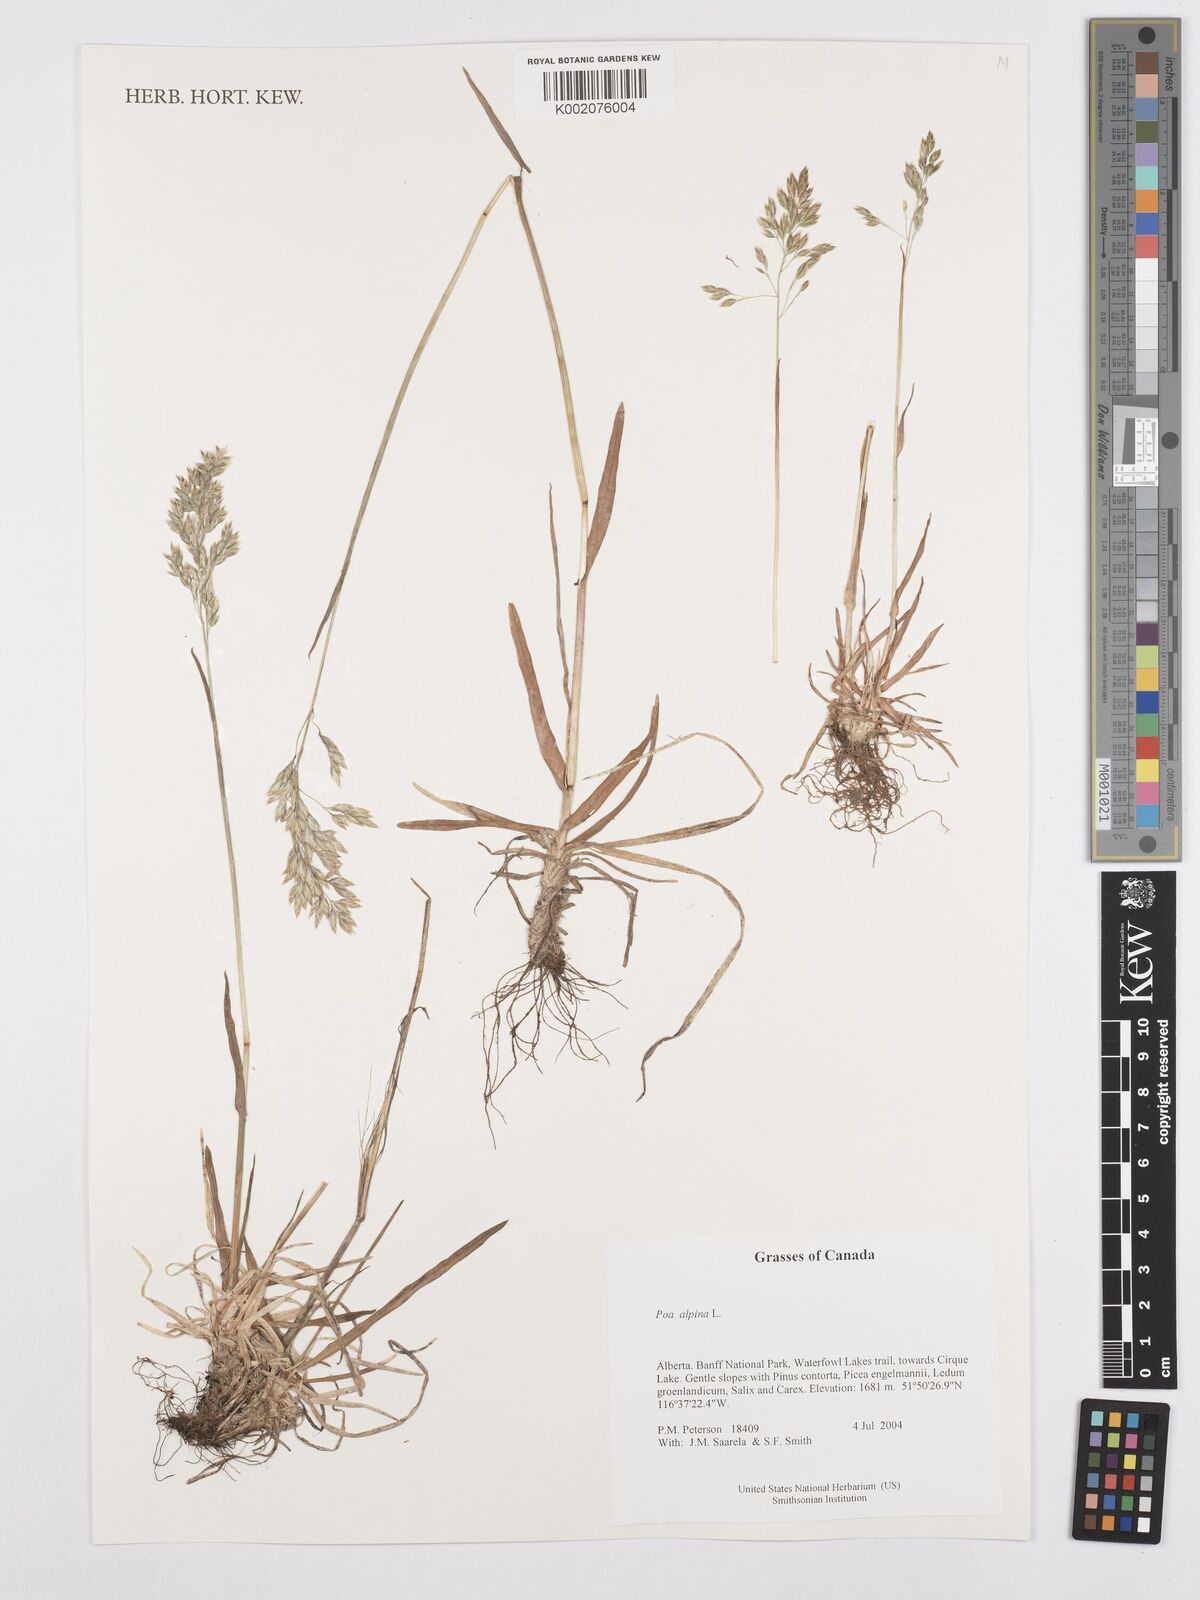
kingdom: Plantae
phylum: Tracheophyta
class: Liliopsida
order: Poales
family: Poaceae
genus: Poa
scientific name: Poa alpina
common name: Alpine bluegrass
